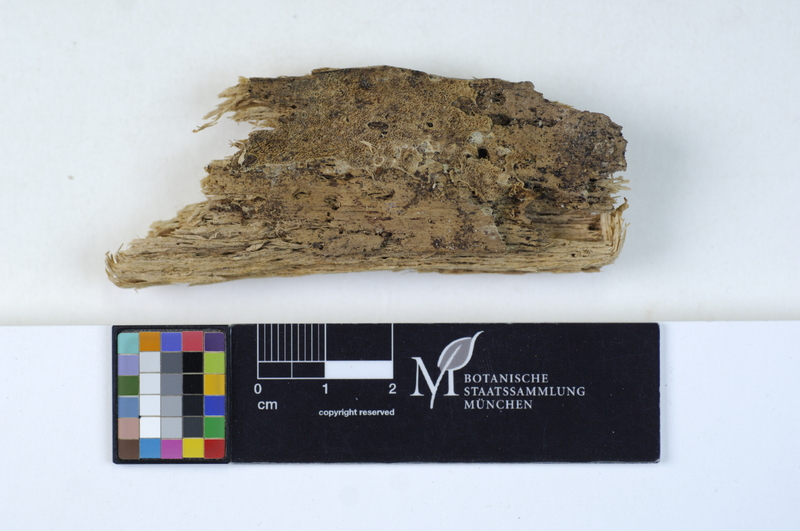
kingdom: Fungi
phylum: Basidiomycota
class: Agaricomycetes
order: Polyporales
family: Meripilaceae
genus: Rigidoporus
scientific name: Rigidoporus sanguinolentus
